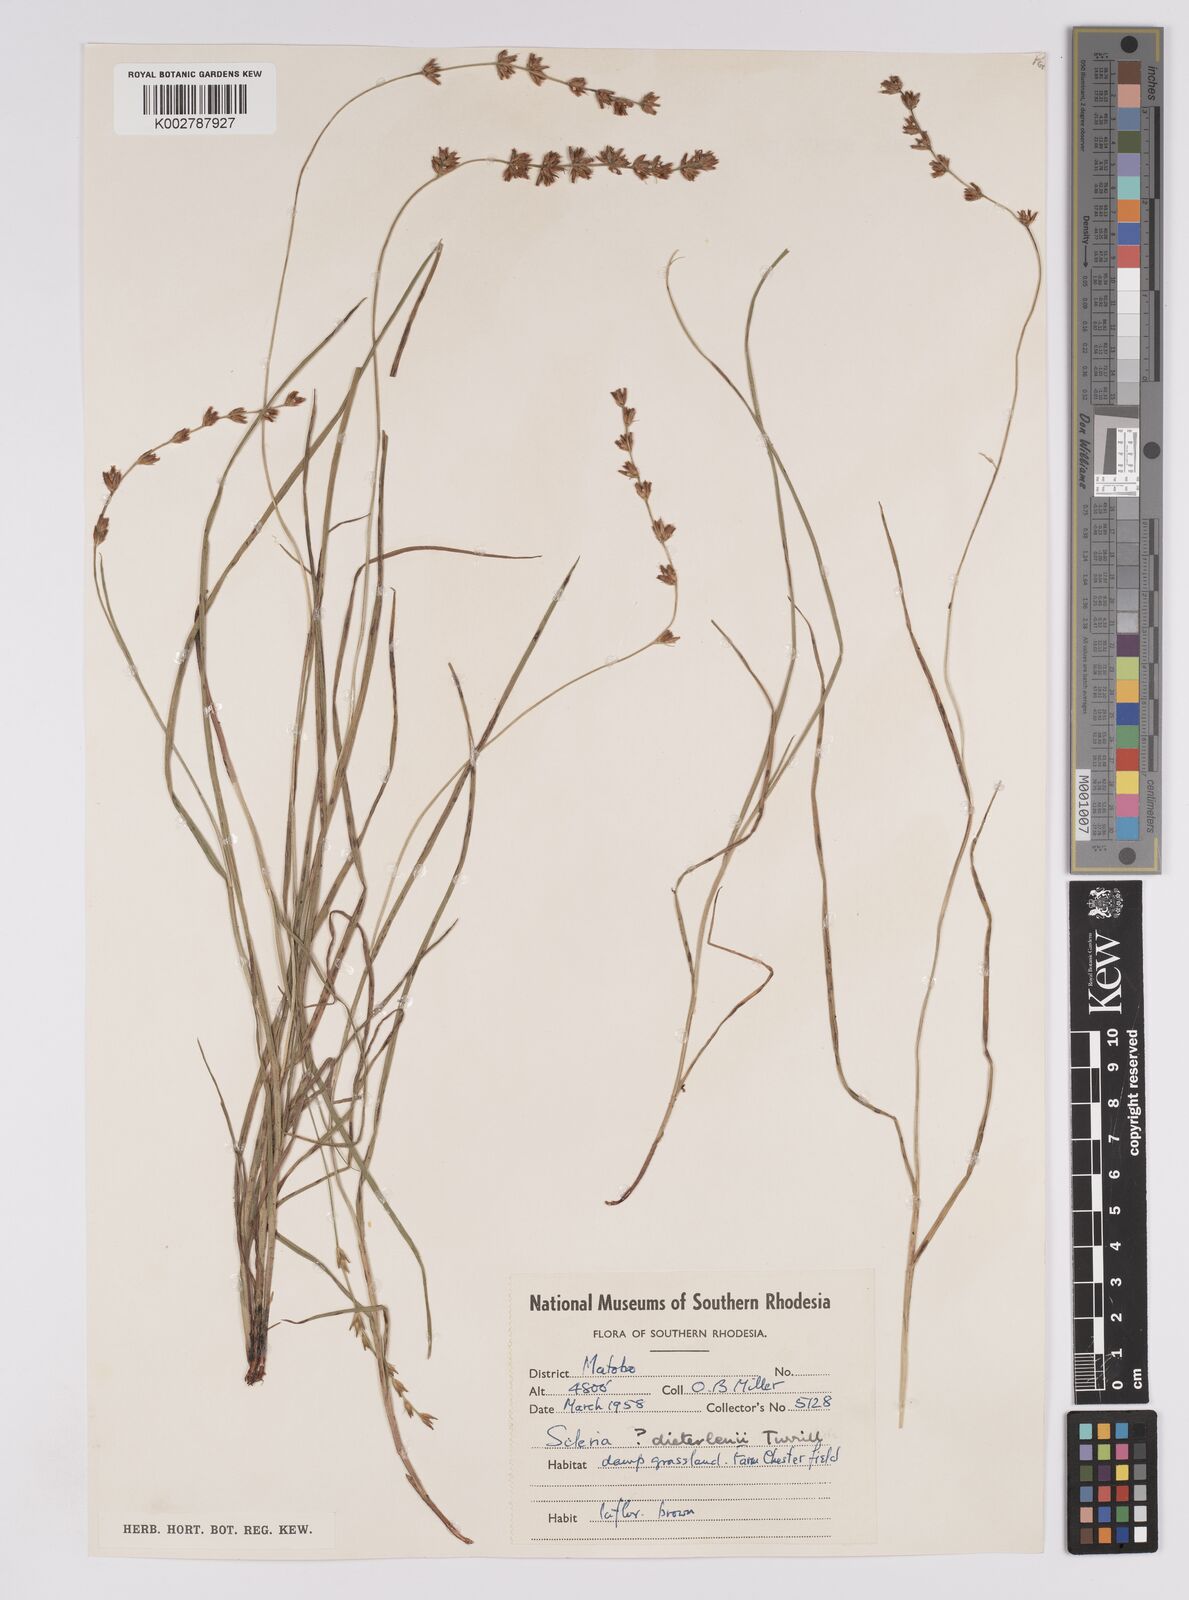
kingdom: Plantae
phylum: Tracheophyta
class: Liliopsida
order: Poales
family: Cyperaceae
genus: Scleria
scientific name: Scleria flexuosa
